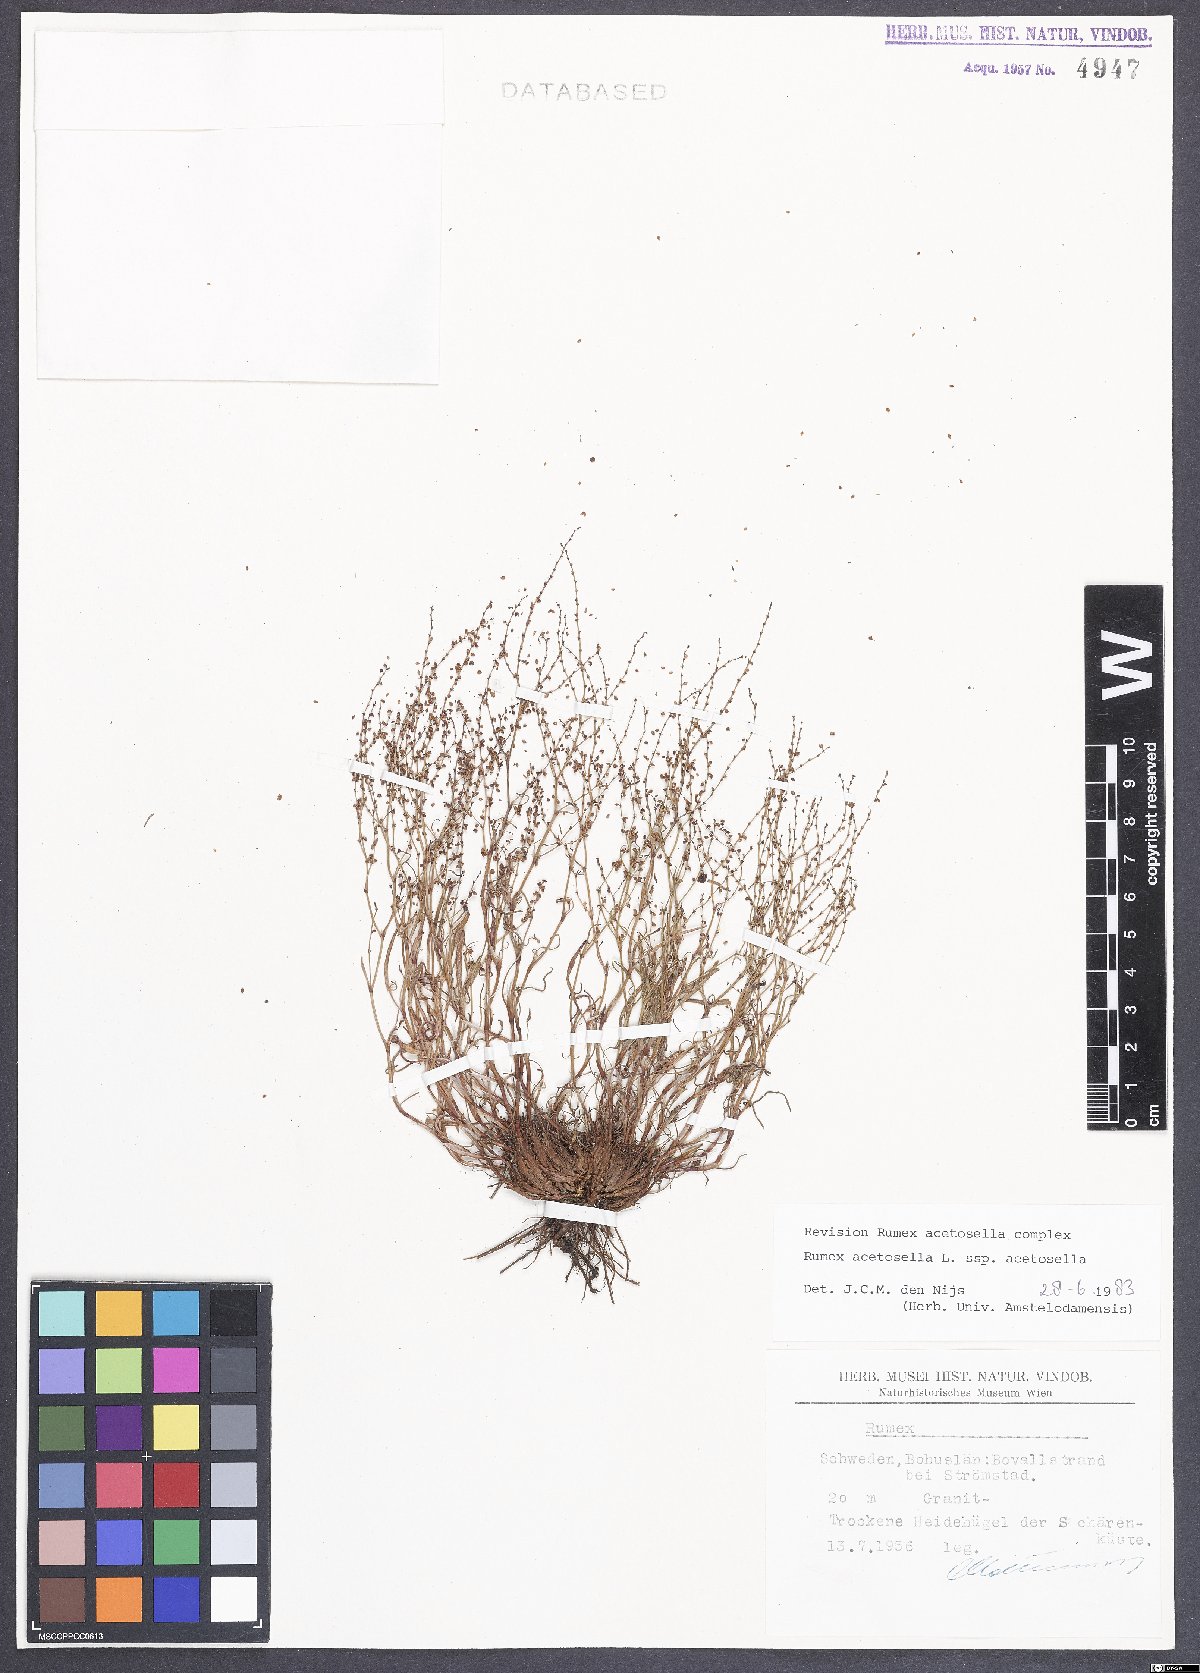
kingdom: Plantae
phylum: Tracheophyta
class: Magnoliopsida
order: Caryophyllales
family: Polygonaceae
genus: Rumex
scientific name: Rumex acetosella
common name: Common sheep sorrel
